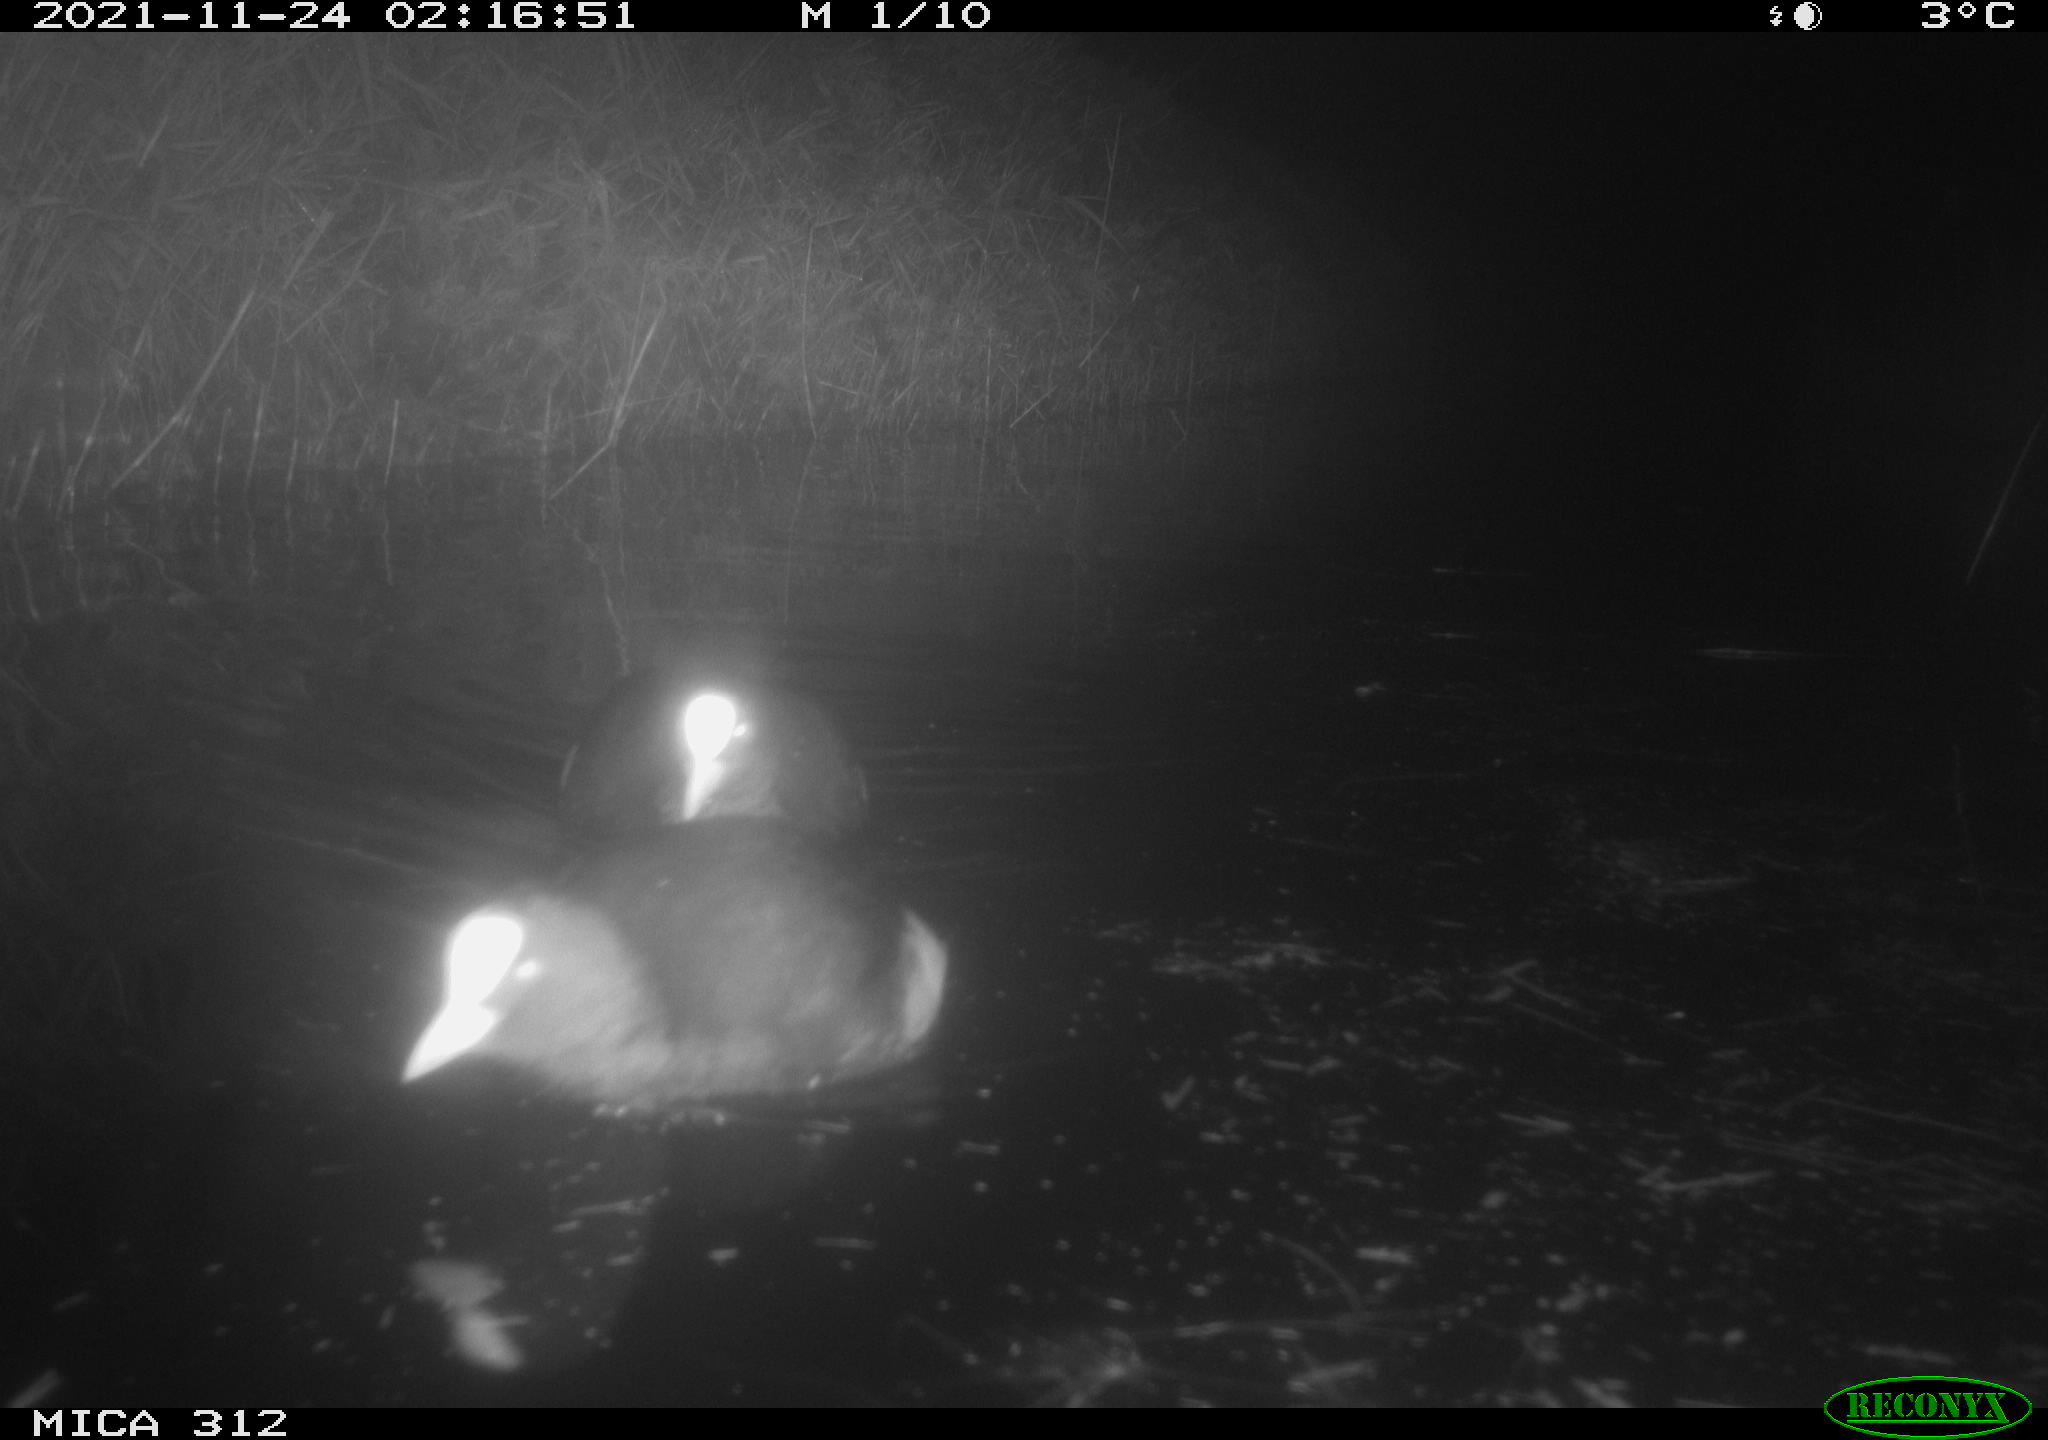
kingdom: Animalia
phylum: Chordata
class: Aves
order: Gruiformes
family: Rallidae
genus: Fulica
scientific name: Fulica atra
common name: Eurasian coot
